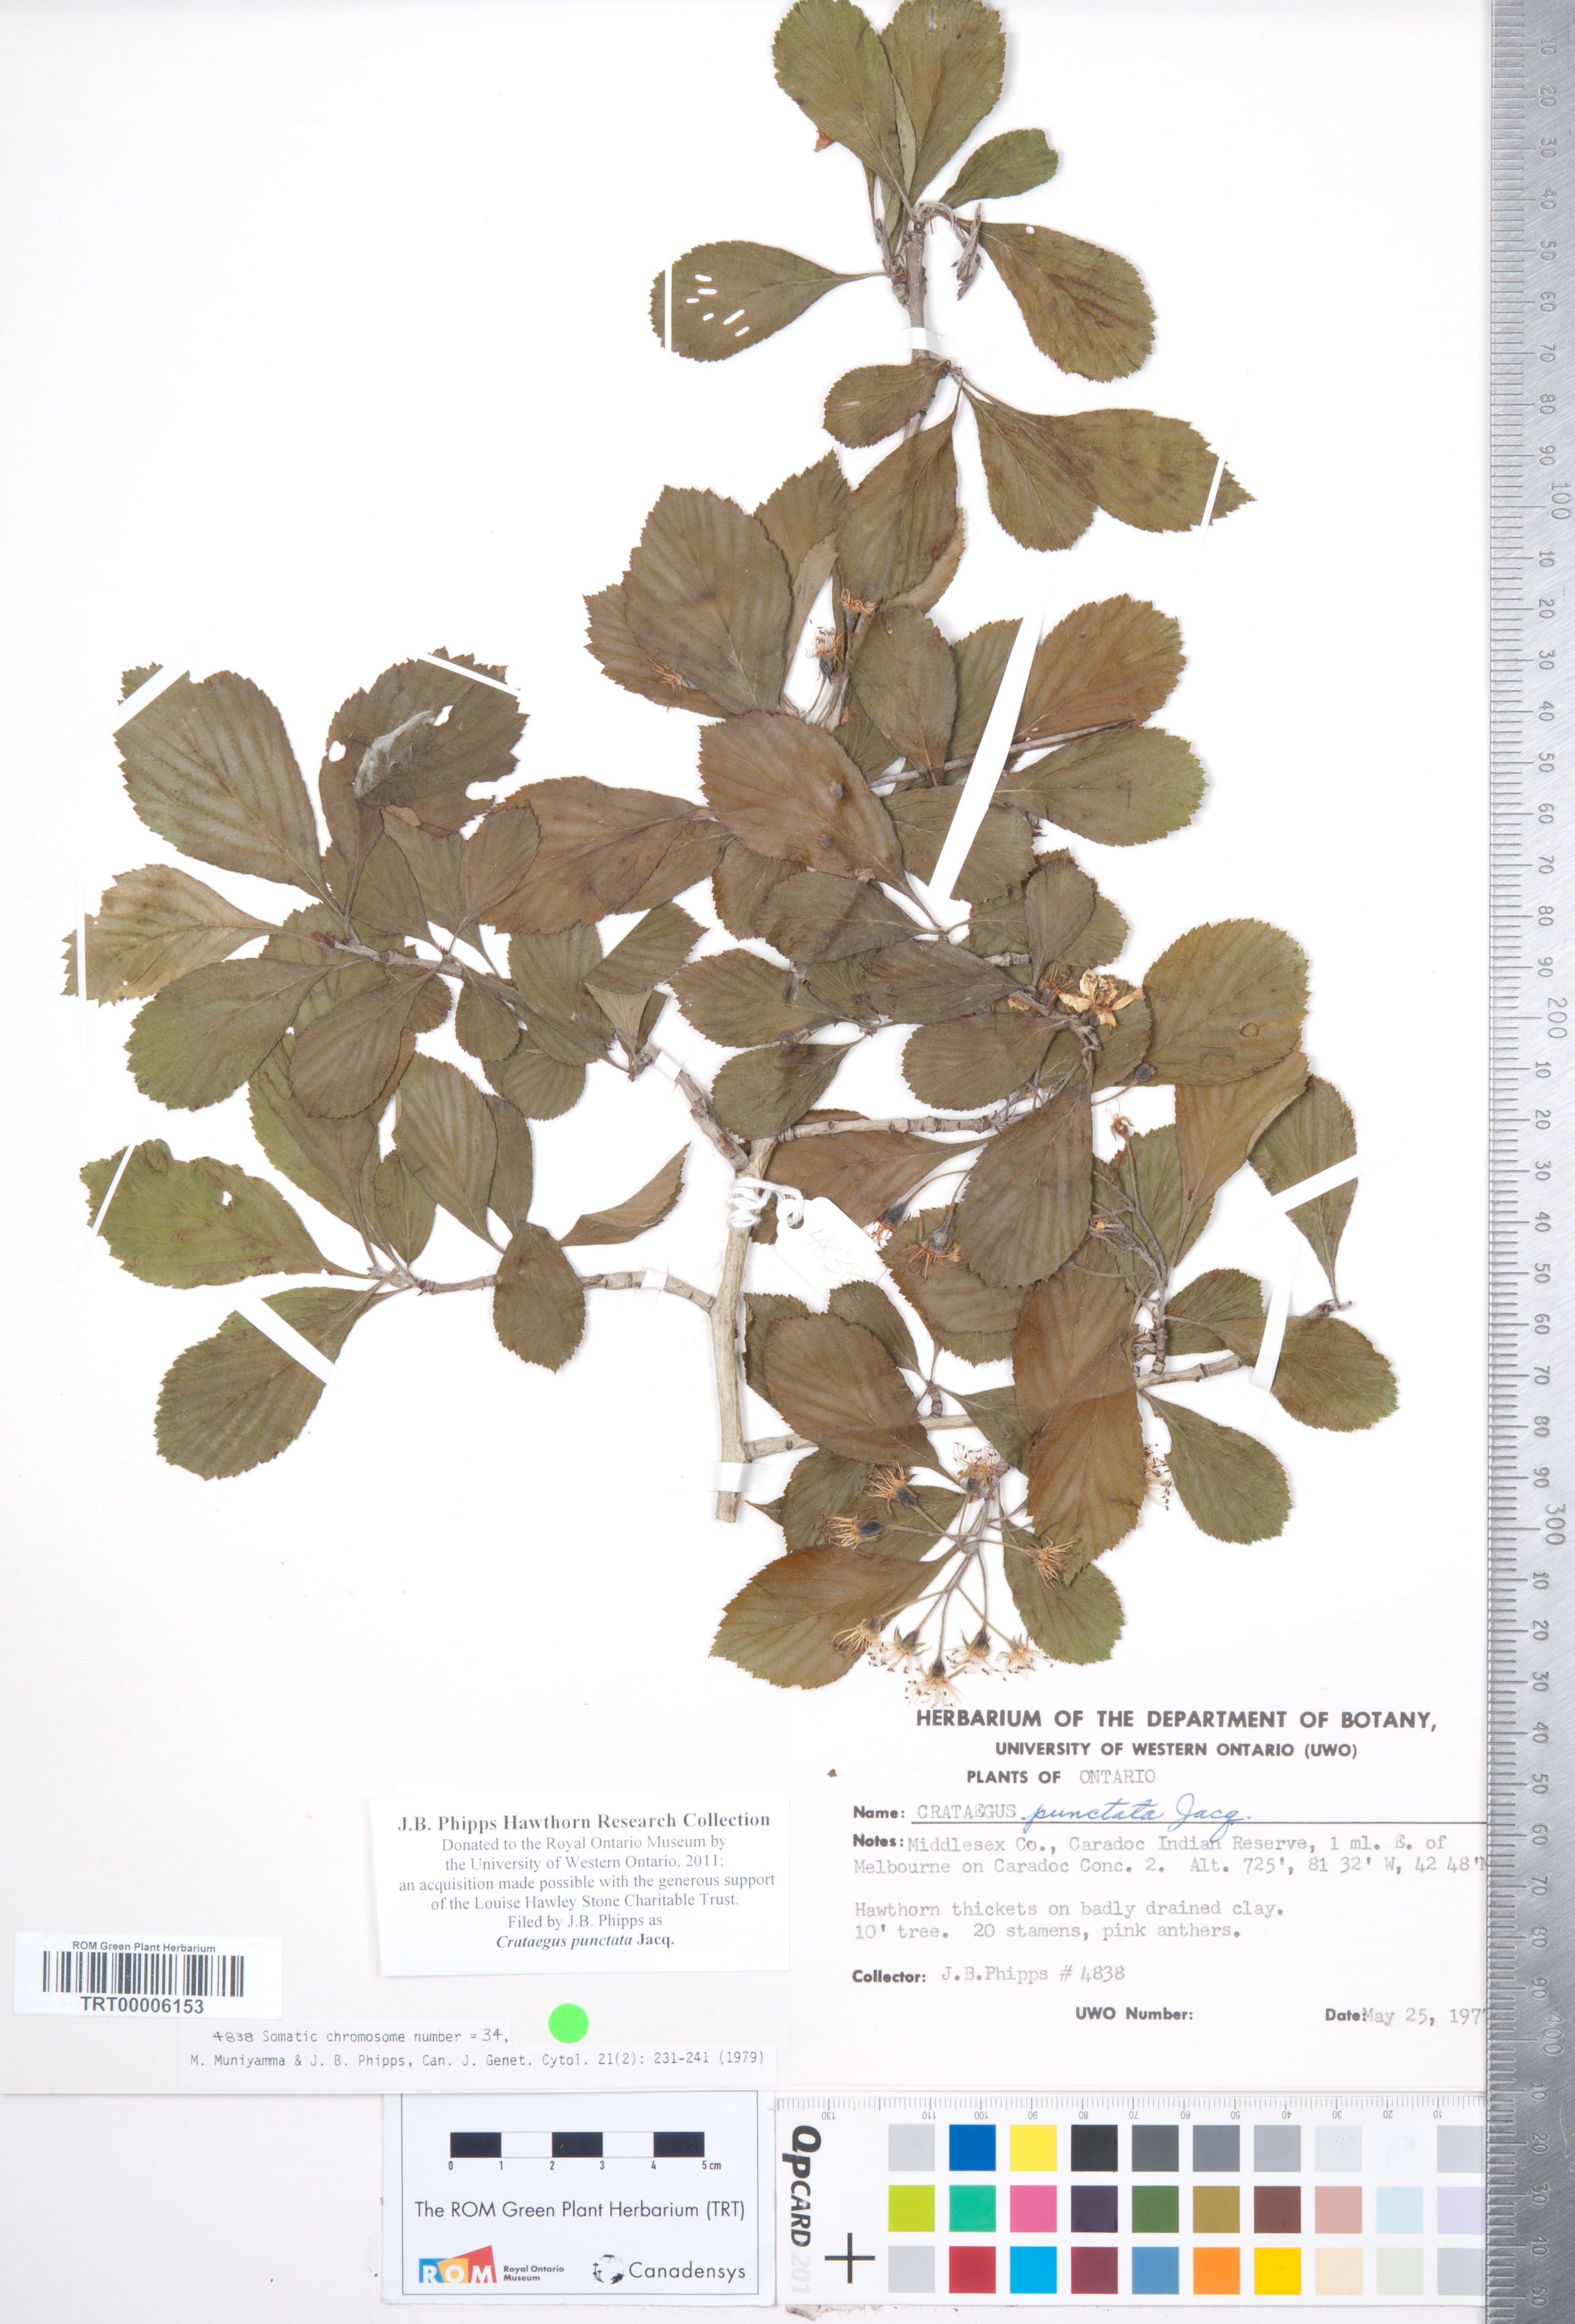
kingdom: Plantae
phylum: Tracheophyta
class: Magnoliopsida
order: Rosales
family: Rosaceae
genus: Crataegus
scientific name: Crataegus punctata
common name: Dotted hawthorn
